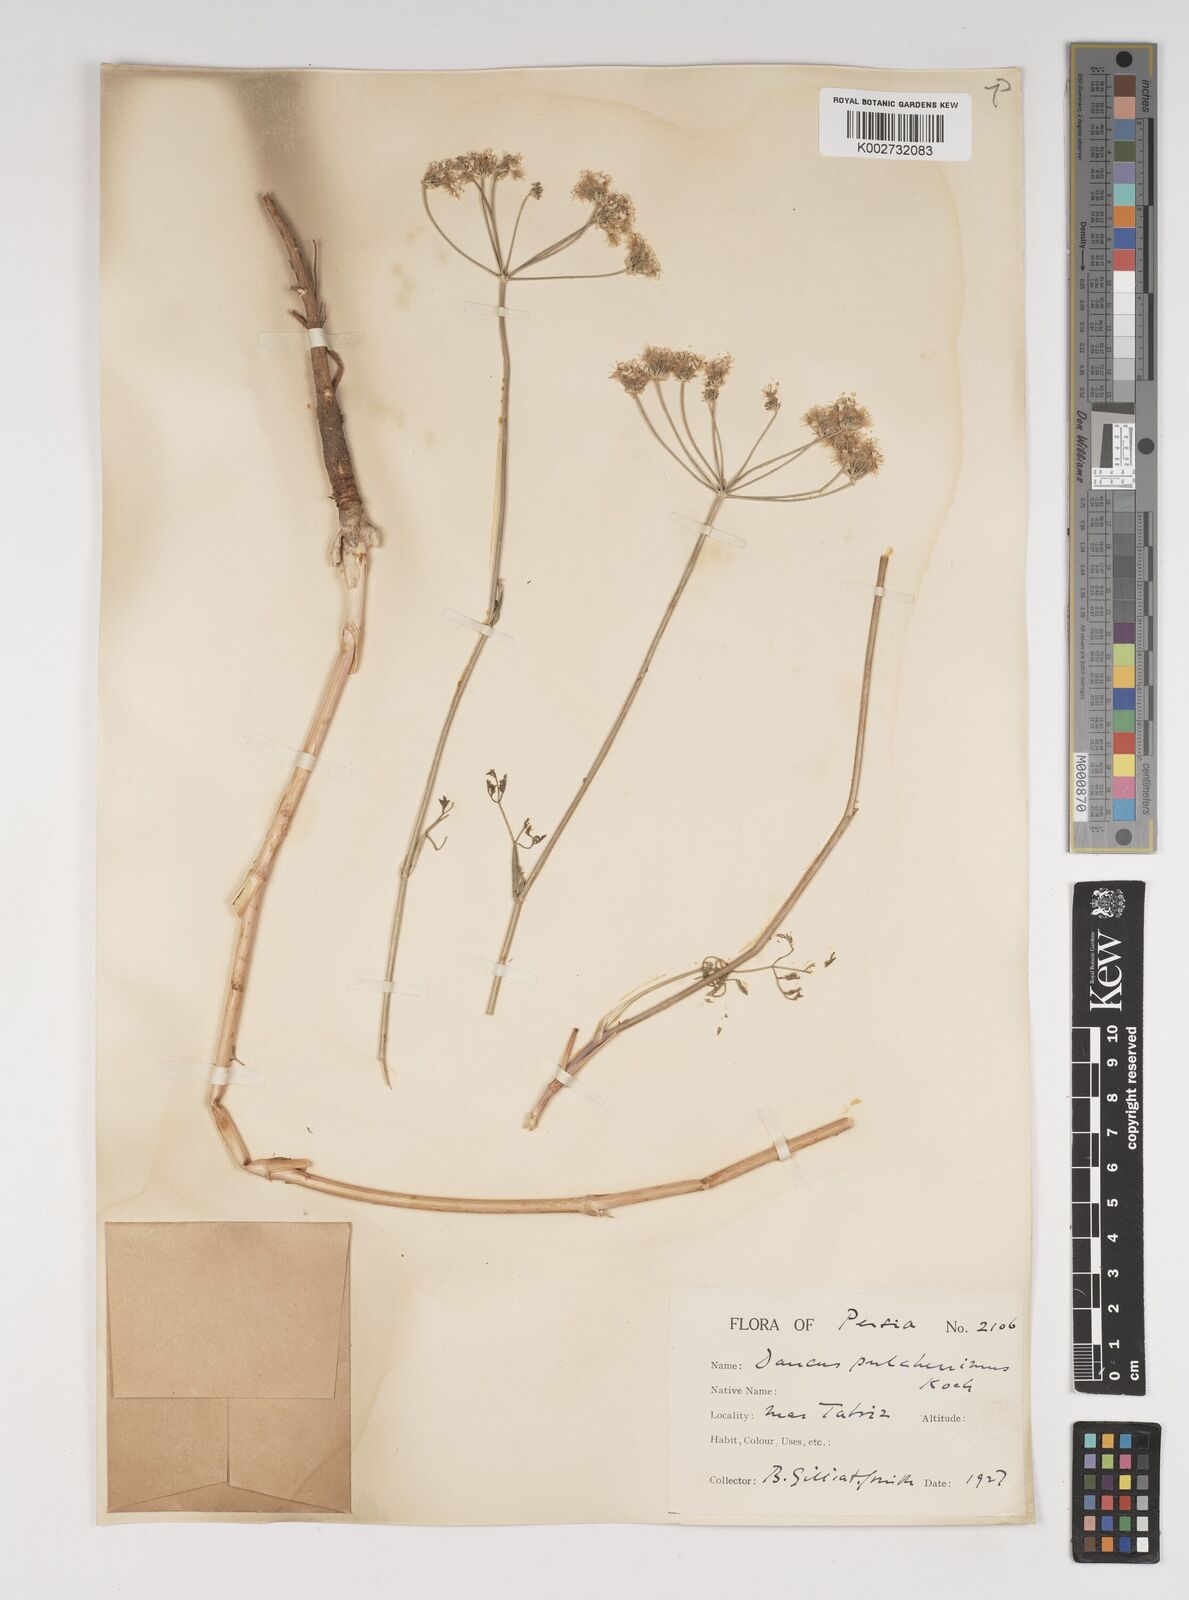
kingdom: Plantae
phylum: Tracheophyta
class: Magnoliopsida
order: Apiales
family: Apiaceae
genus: Astrodaucus
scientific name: Astrodaucus
